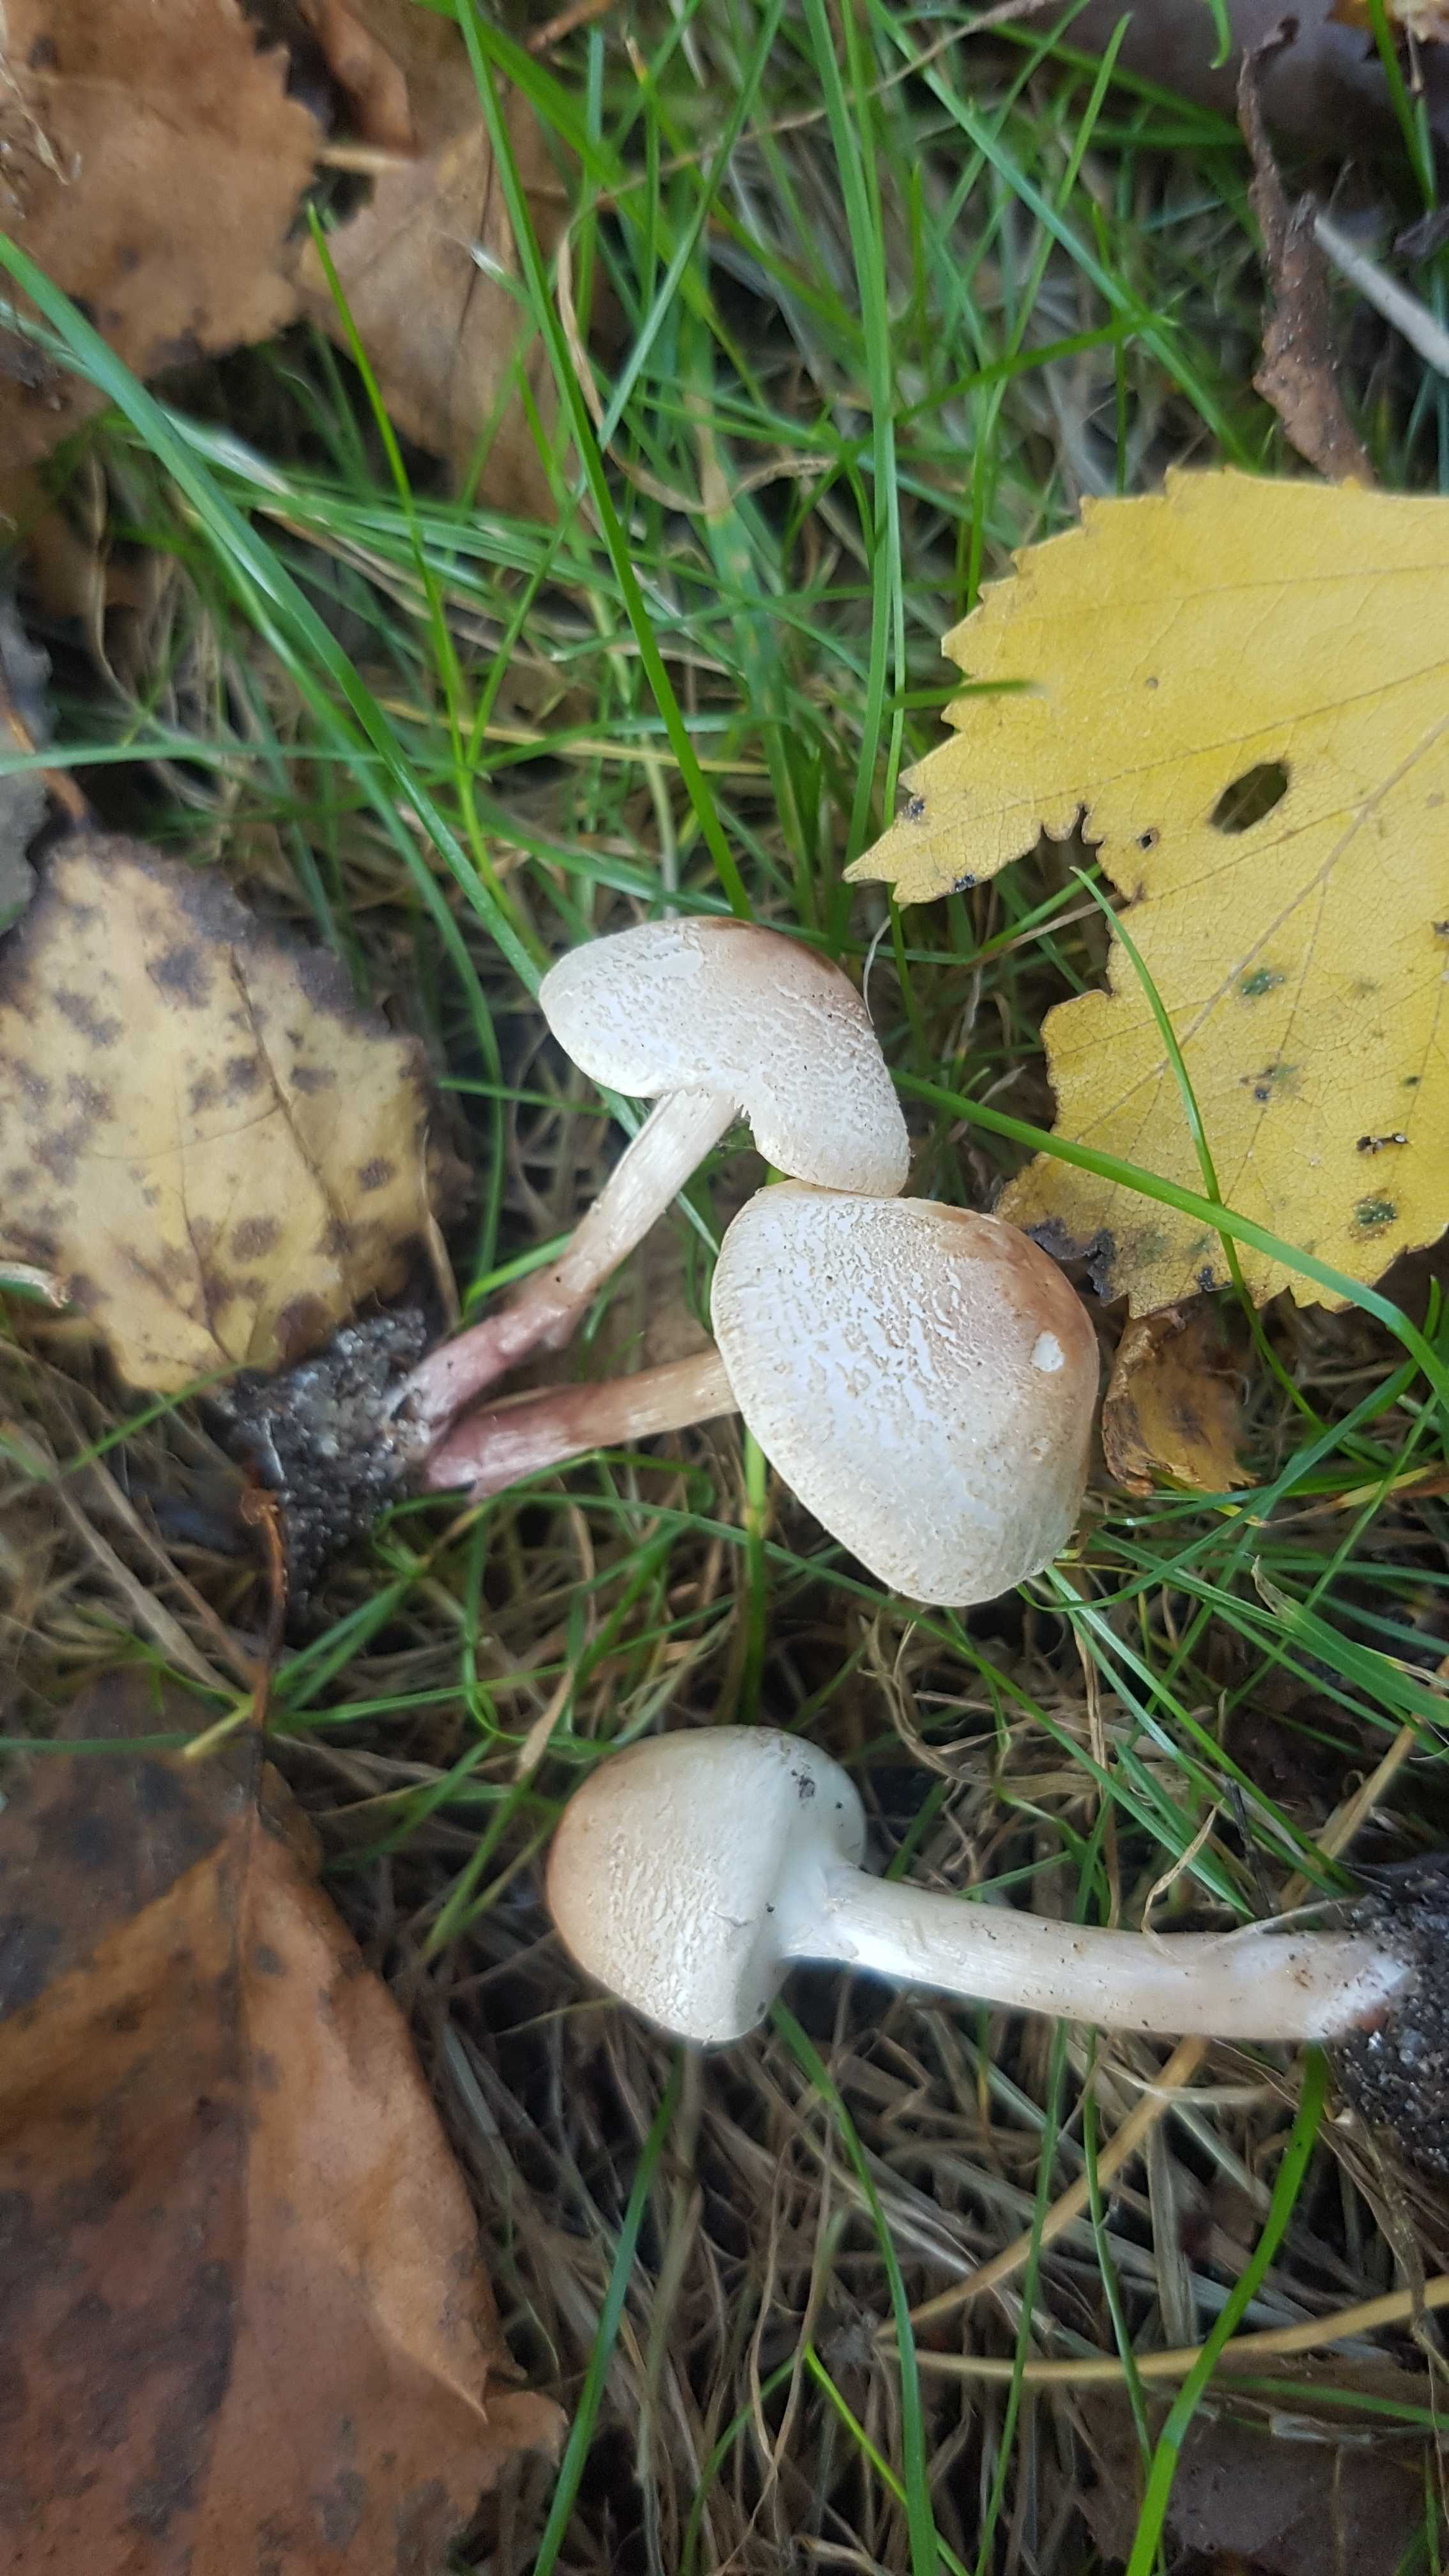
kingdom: Fungi
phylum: Basidiomycota
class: Agaricomycetes
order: Agaricales
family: Agaricaceae
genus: Lepiota
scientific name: Lepiota cristata
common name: stinkende parasolhat
